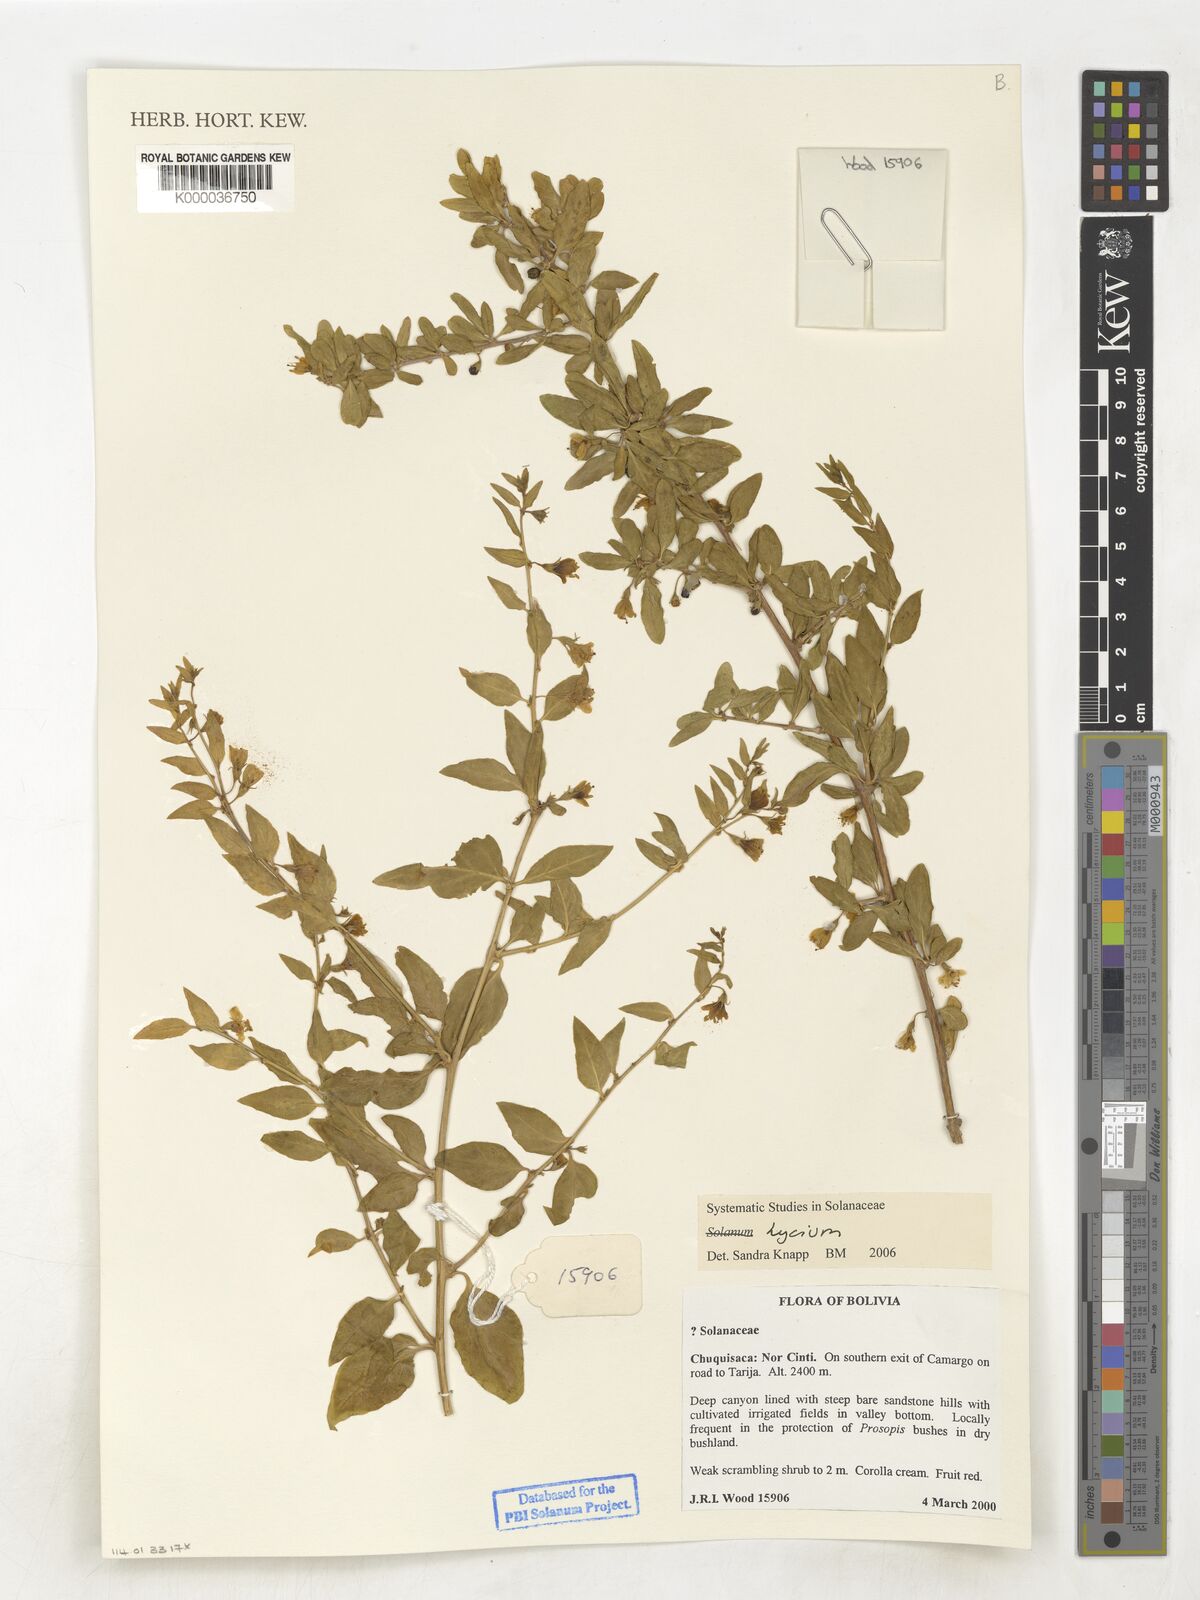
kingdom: Plantae
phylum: Tracheophyta
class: Magnoliopsida
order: Solanales
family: Solanaceae
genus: Lycium
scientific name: Lycium
